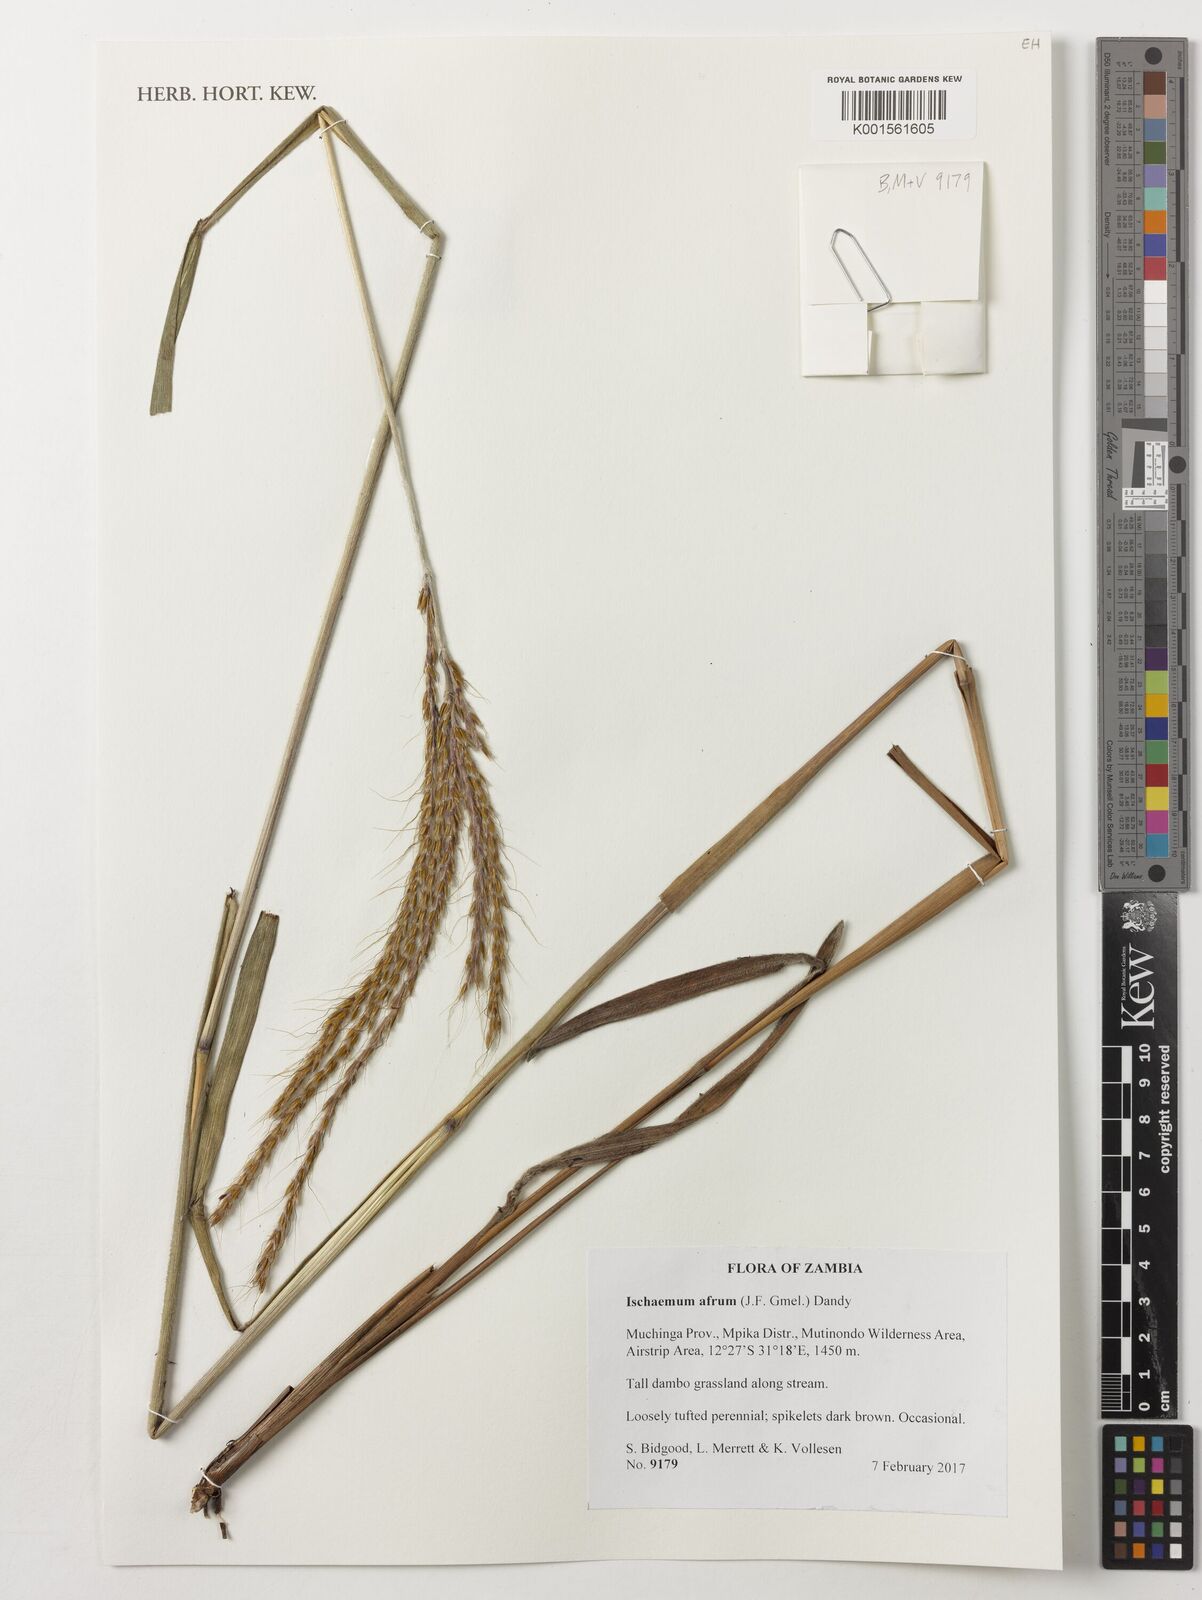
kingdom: Plantae
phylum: Tracheophyta
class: Liliopsida
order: Poales
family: Poaceae
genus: Ischaemum
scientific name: Ischaemum afrum
